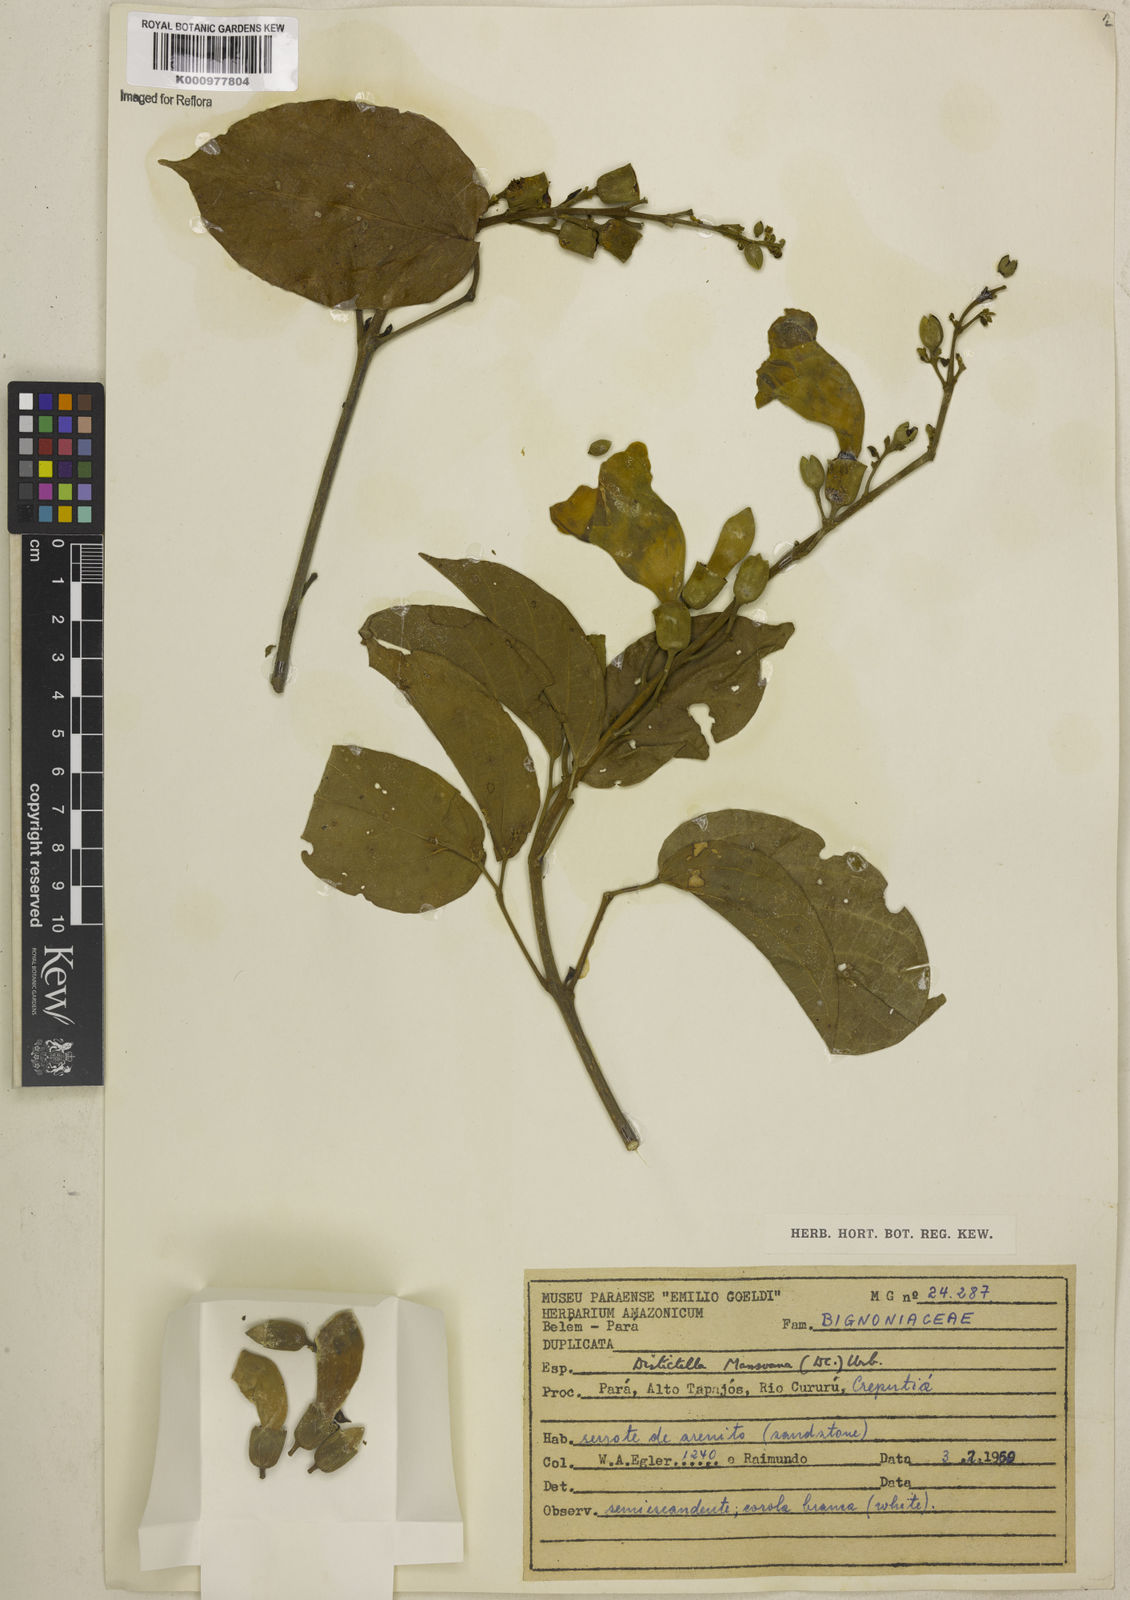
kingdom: Plantae
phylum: Tracheophyta
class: Magnoliopsida
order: Lamiales
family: Bignoniaceae
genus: Amphilophium
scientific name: Amphilophium mansoanum
